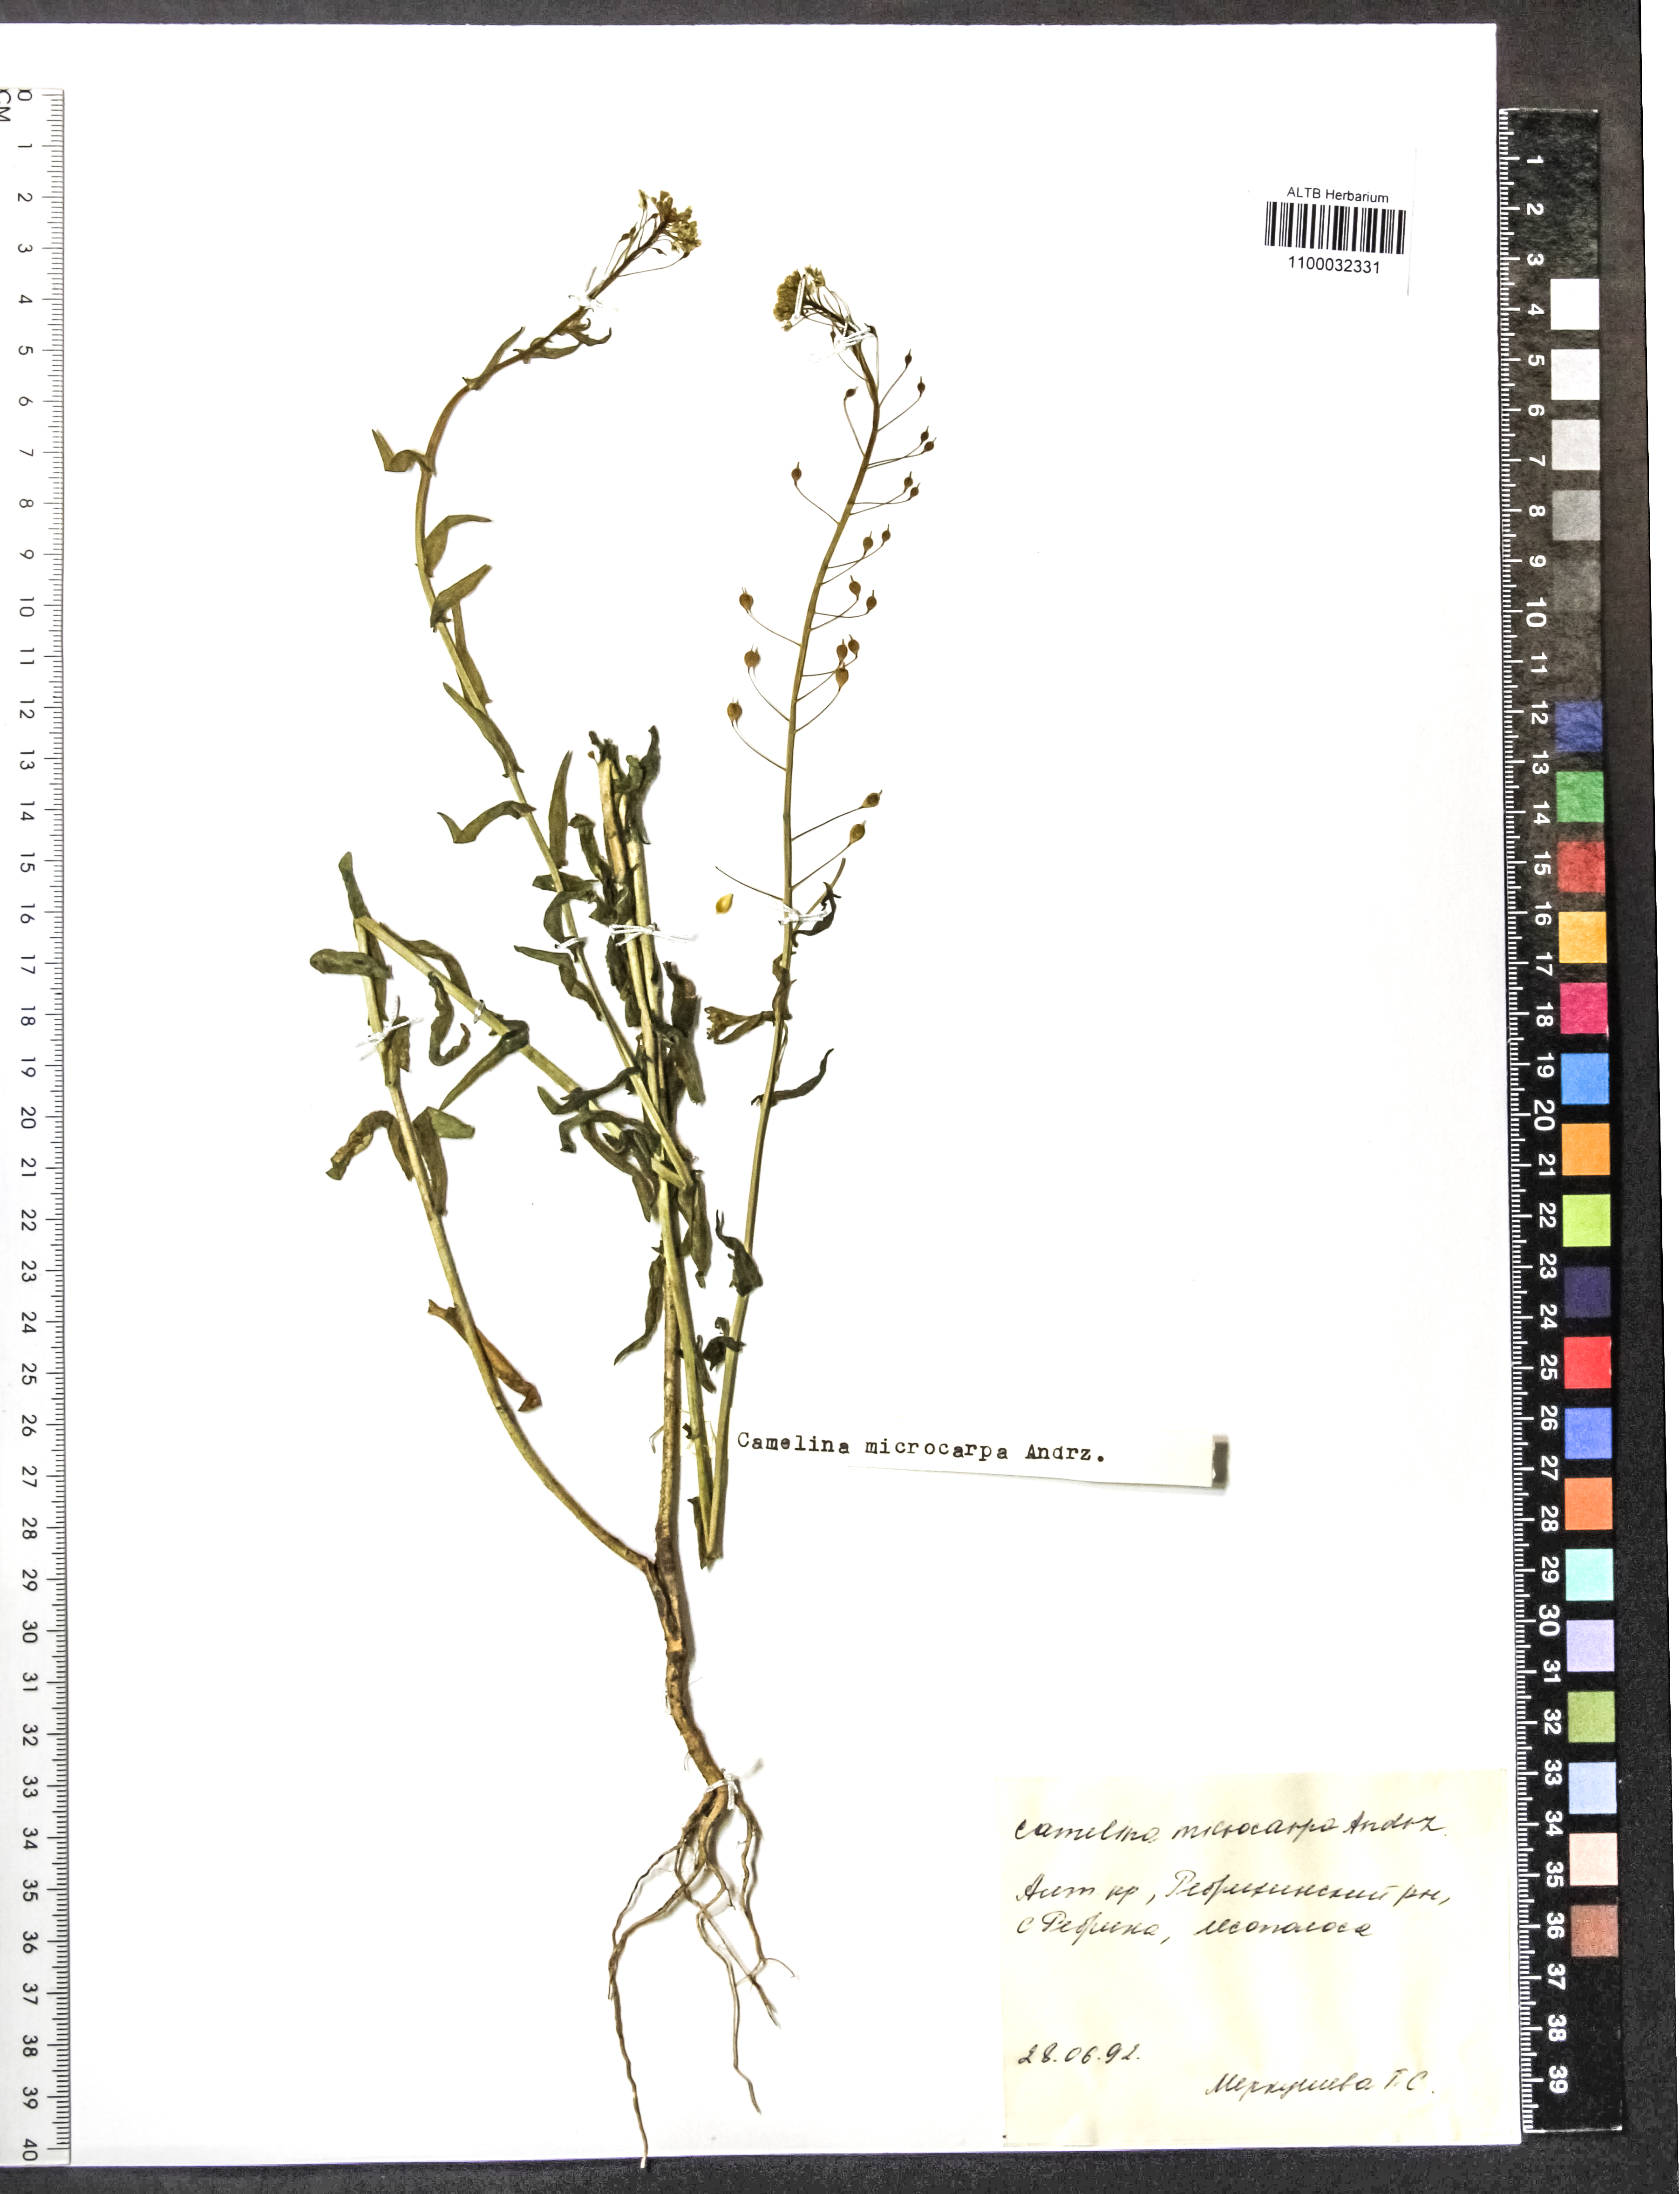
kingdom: Plantae
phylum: Tracheophyta
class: Magnoliopsida
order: Brassicales
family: Brassicaceae
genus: Camelina
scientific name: Camelina microcarpa
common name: Lesser gold-of-pleasure
